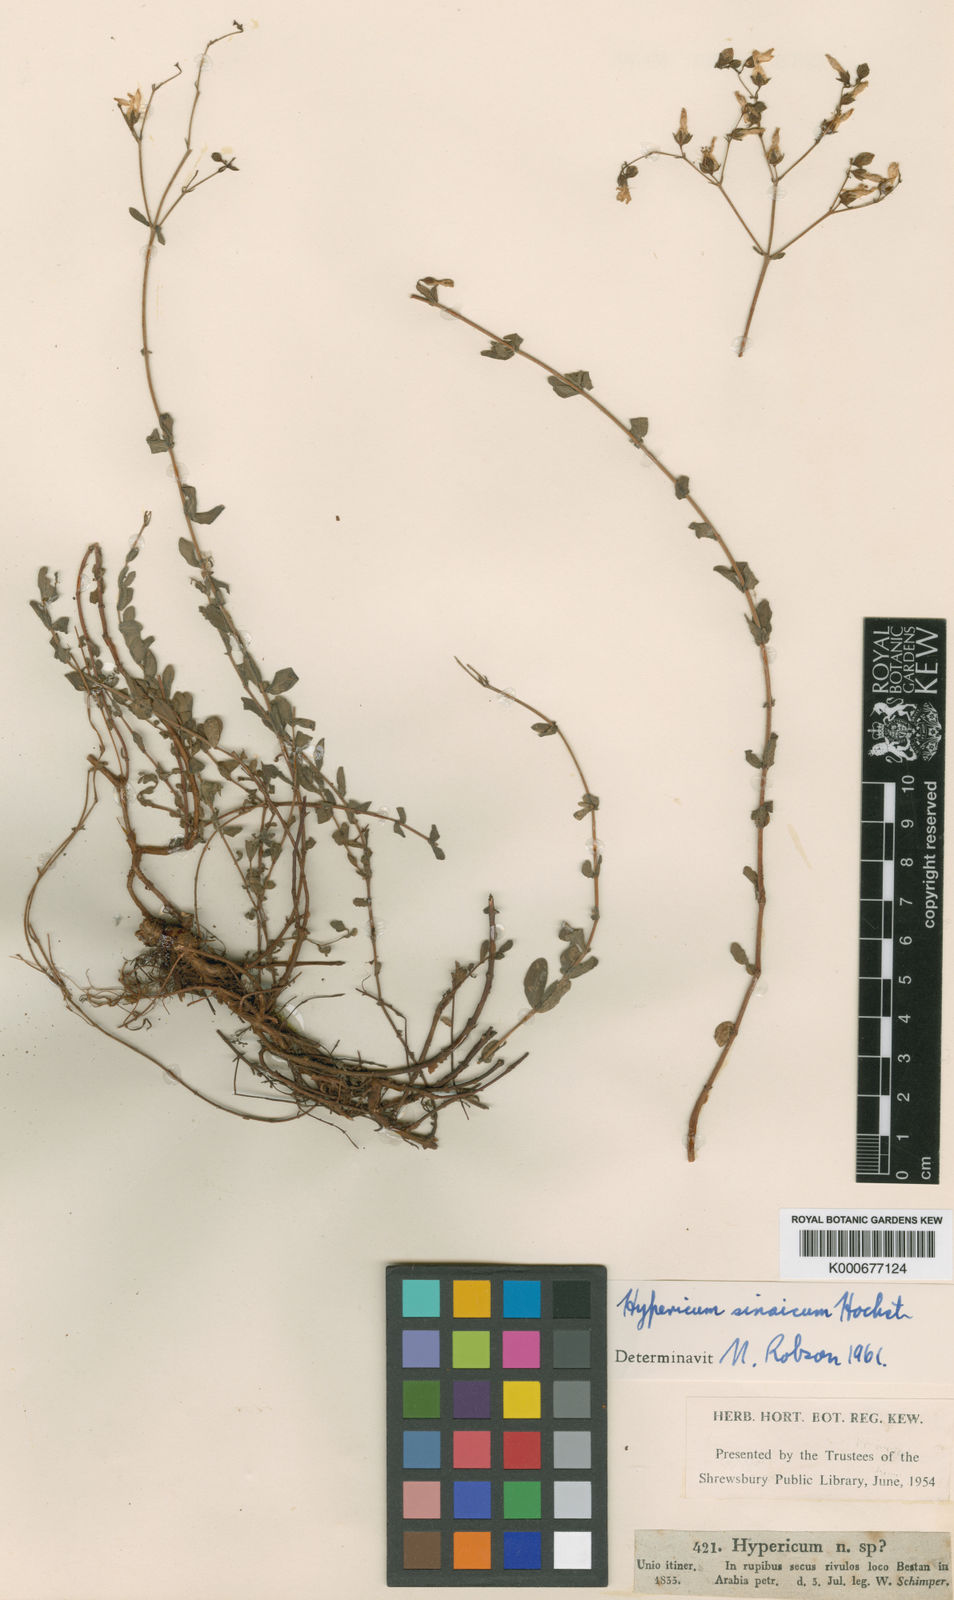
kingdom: Plantae
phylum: Tracheophyta
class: Magnoliopsida
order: Malpighiales
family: Hypericaceae
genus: Hypericum
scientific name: Hypericum sinaicum
